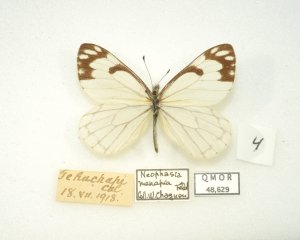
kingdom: Animalia
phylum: Arthropoda
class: Insecta
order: Lepidoptera
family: Pieridae
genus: Neophasia
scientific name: Neophasia menapia
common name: Pine White
